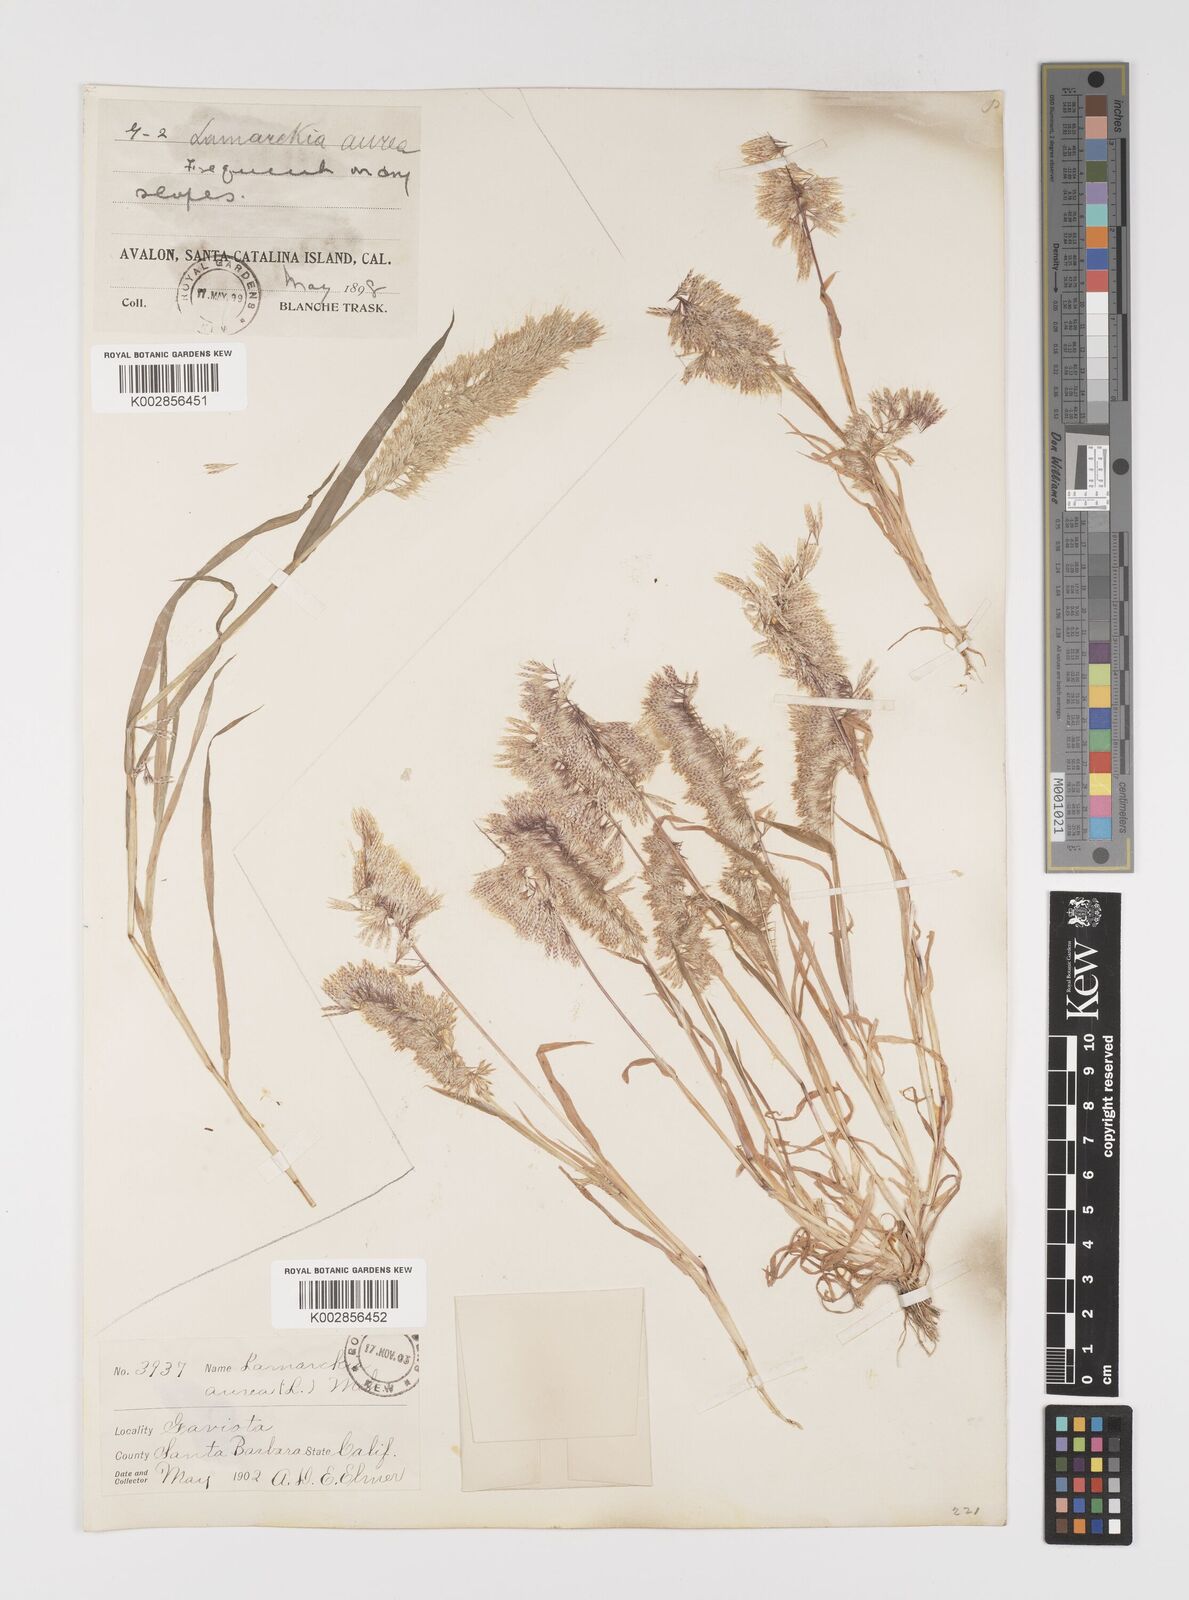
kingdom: Plantae
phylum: Tracheophyta
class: Liliopsida
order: Poales
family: Poaceae
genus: Lamarckia
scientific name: Lamarckia aurea
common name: Golden dog's-tail
